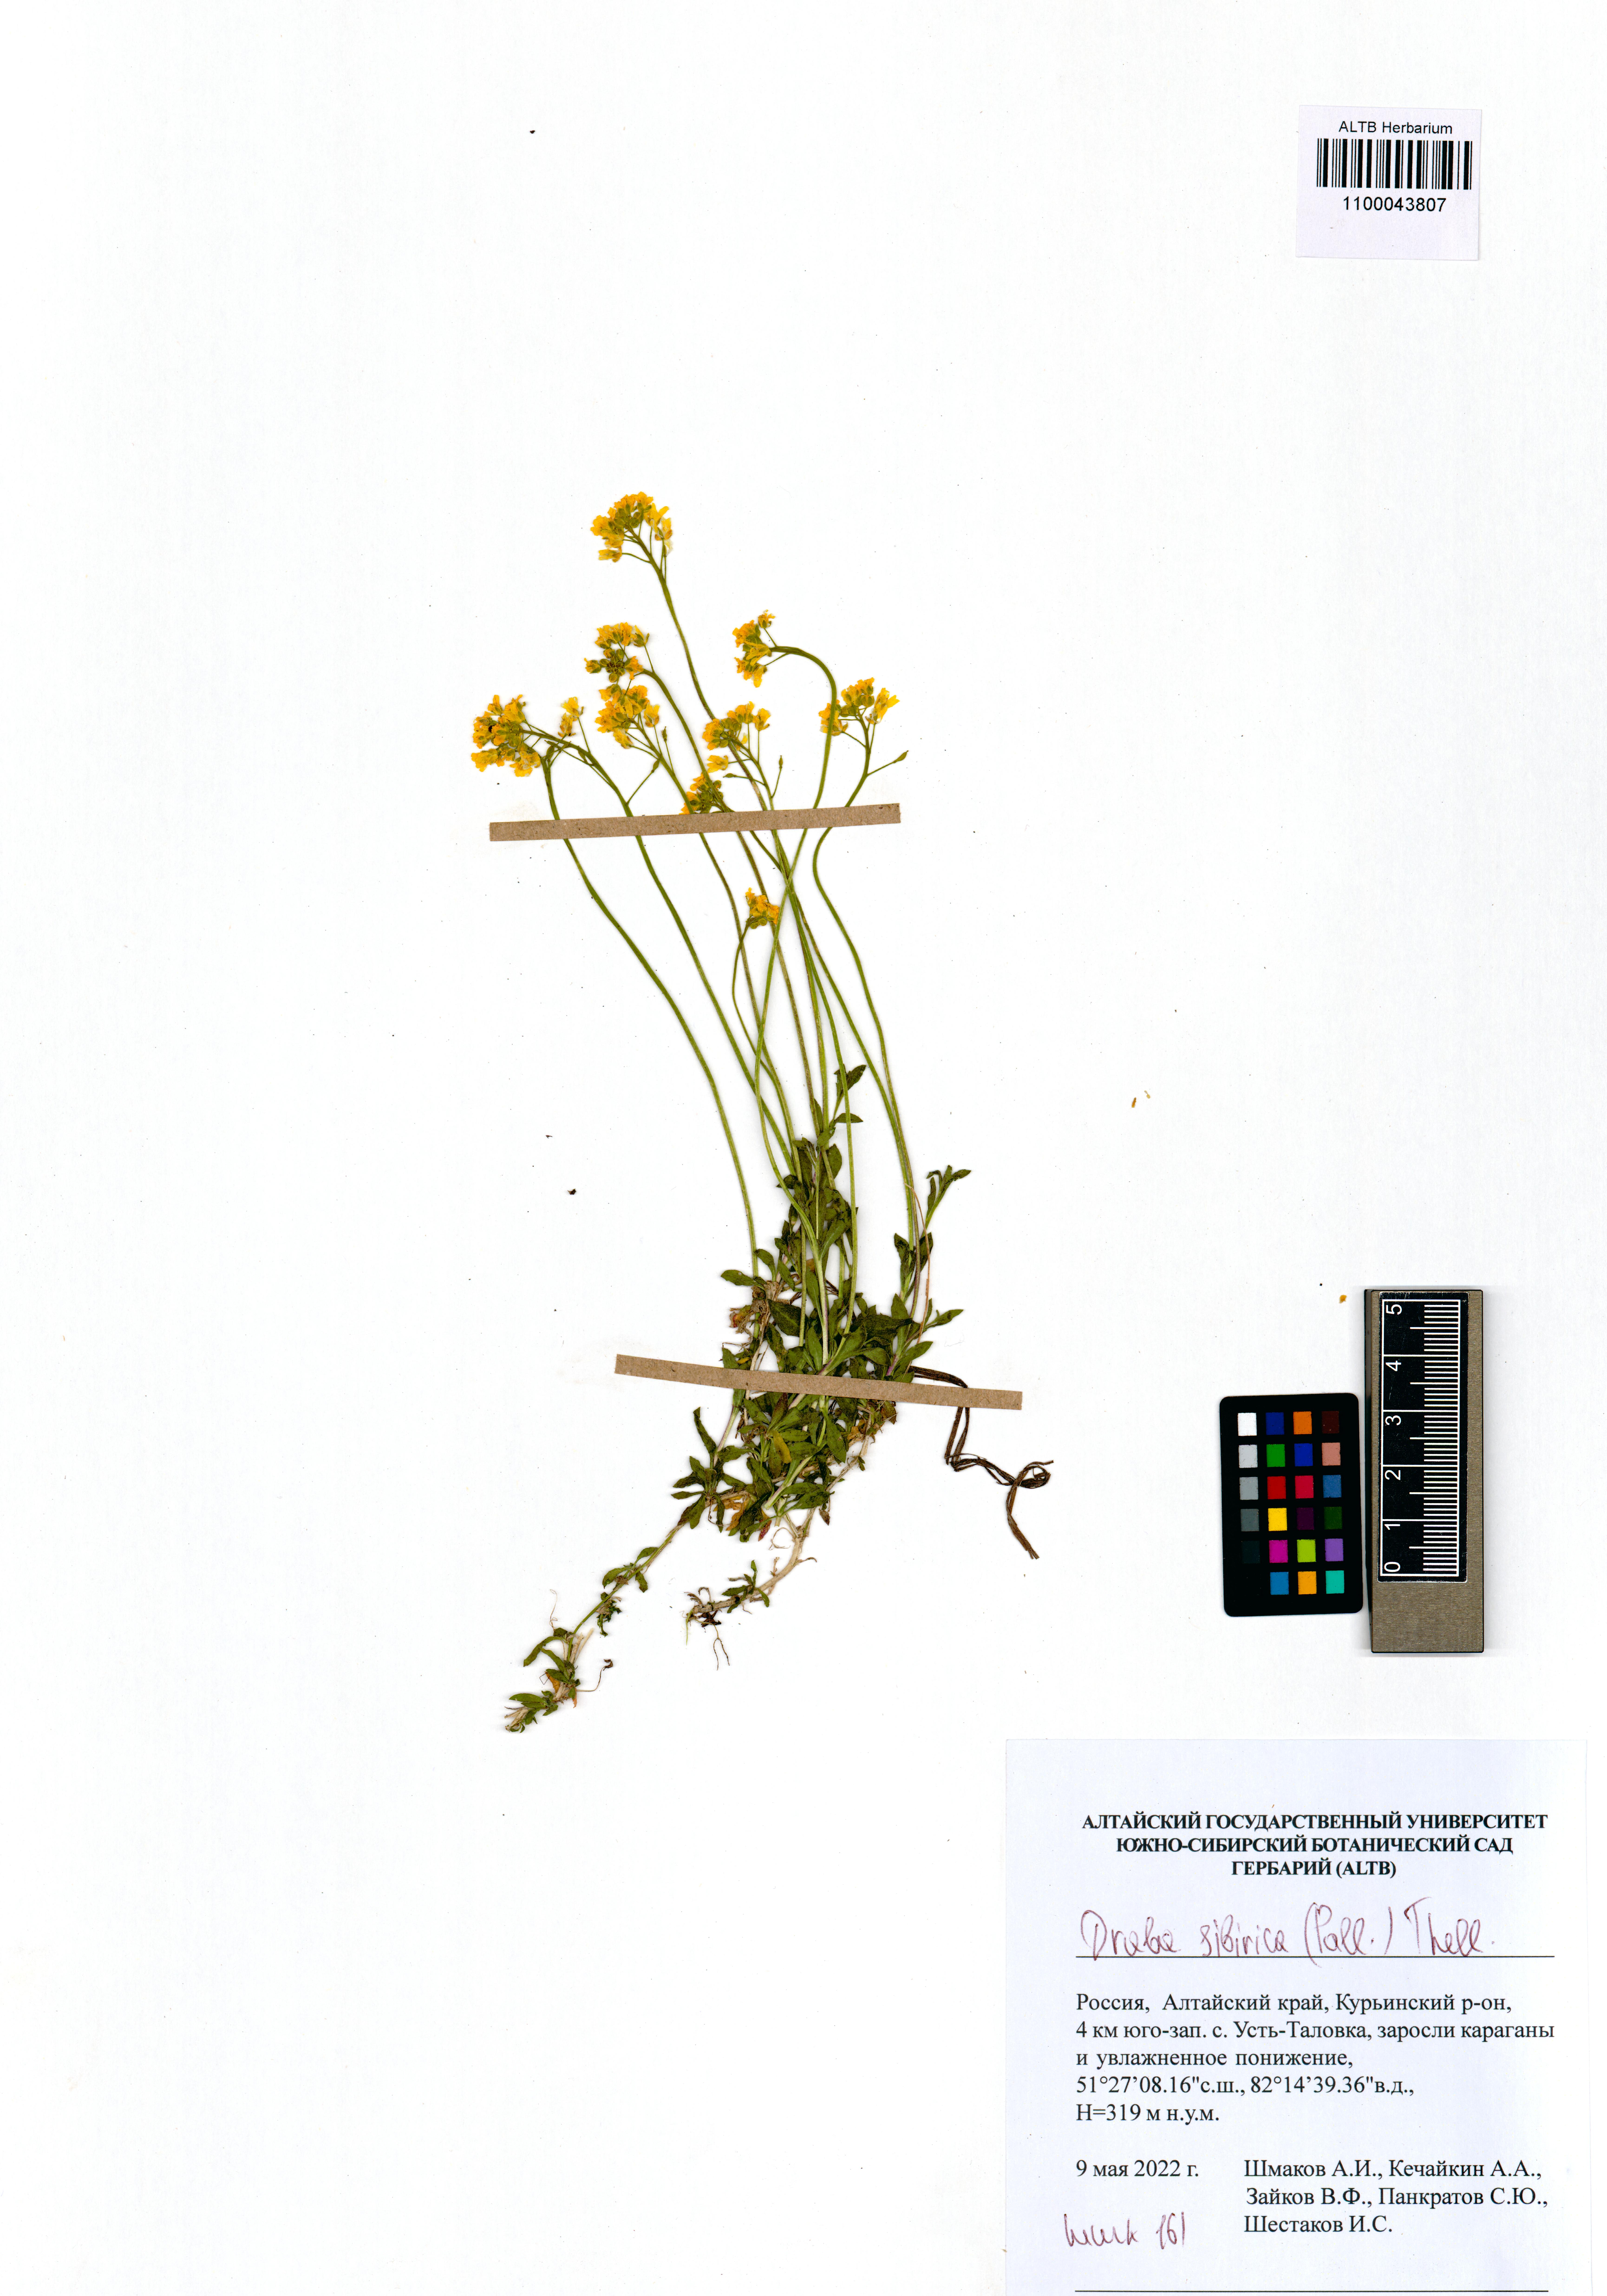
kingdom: Plantae
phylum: Tracheophyta
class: Magnoliopsida
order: Brassicales
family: Brassicaceae
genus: Draba
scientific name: Draba sibirica
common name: Siberian draba
